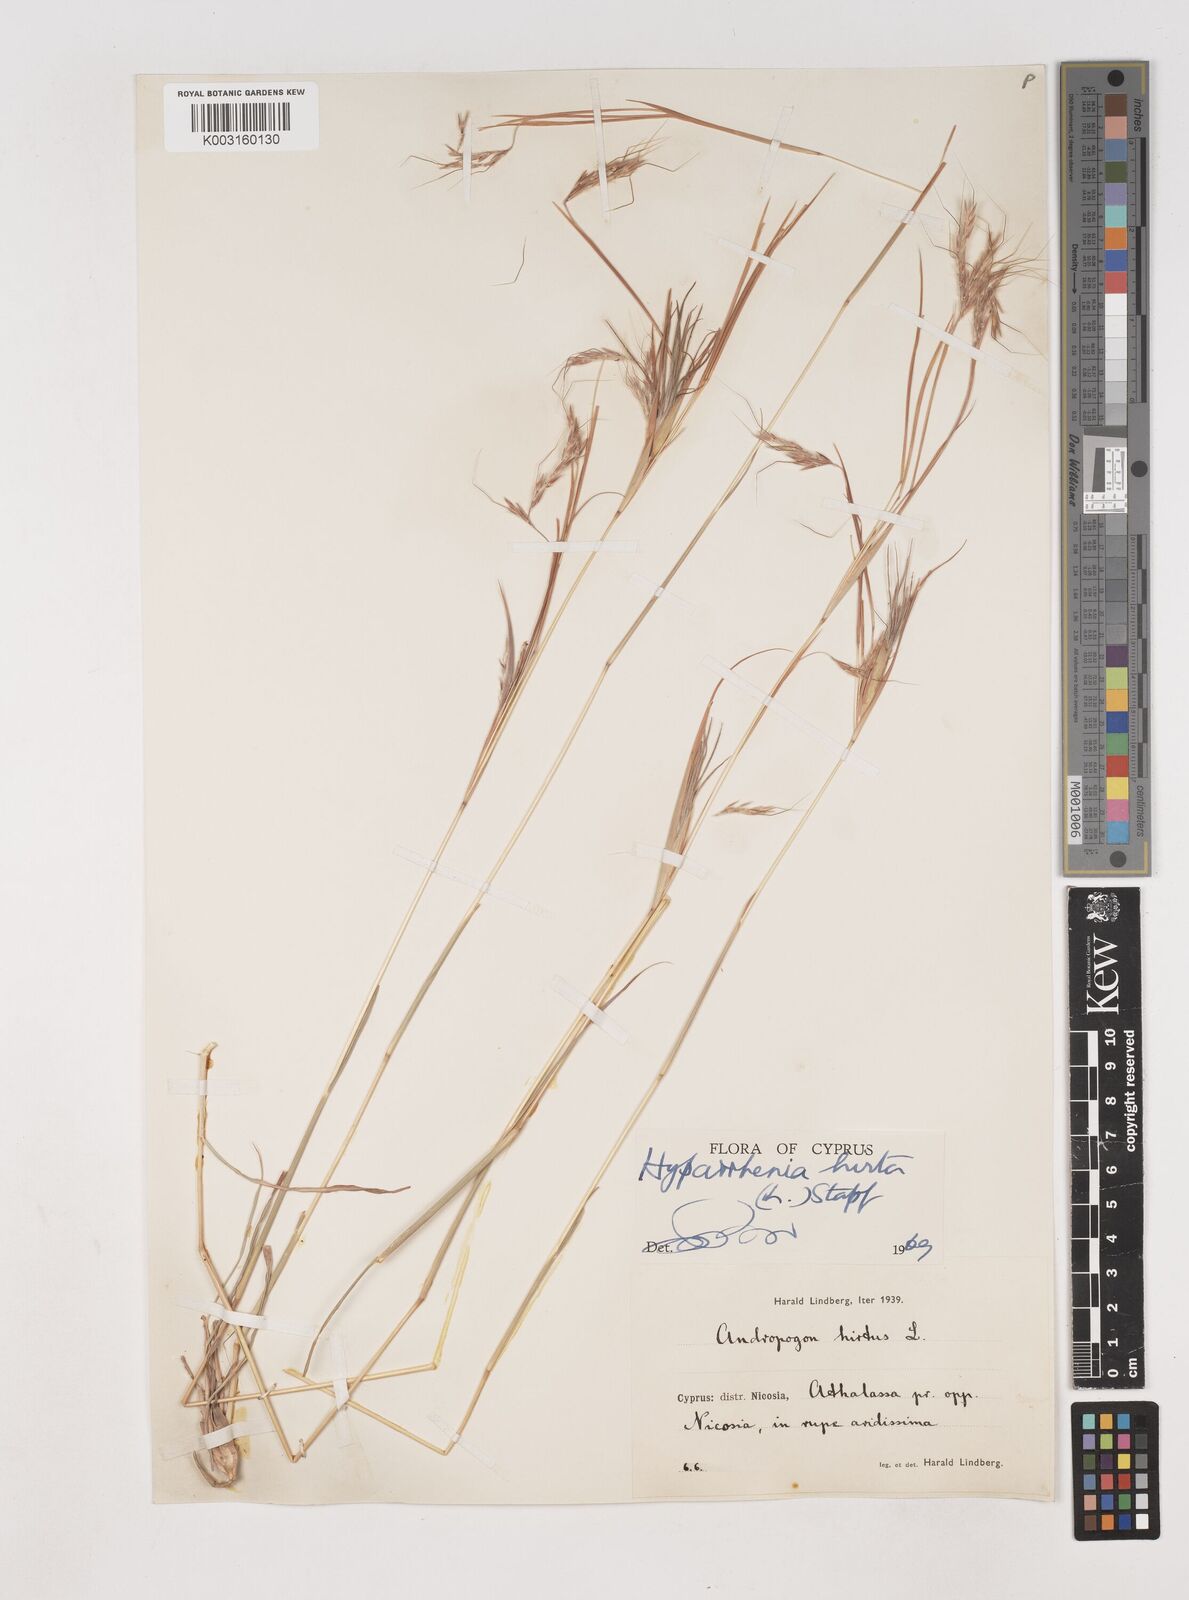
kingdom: Plantae
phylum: Tracheophyta
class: Liliopsida
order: Poales
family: Poaceae
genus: Hyparrhenia
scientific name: Hyparrhenia hirta
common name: Thatching grass
